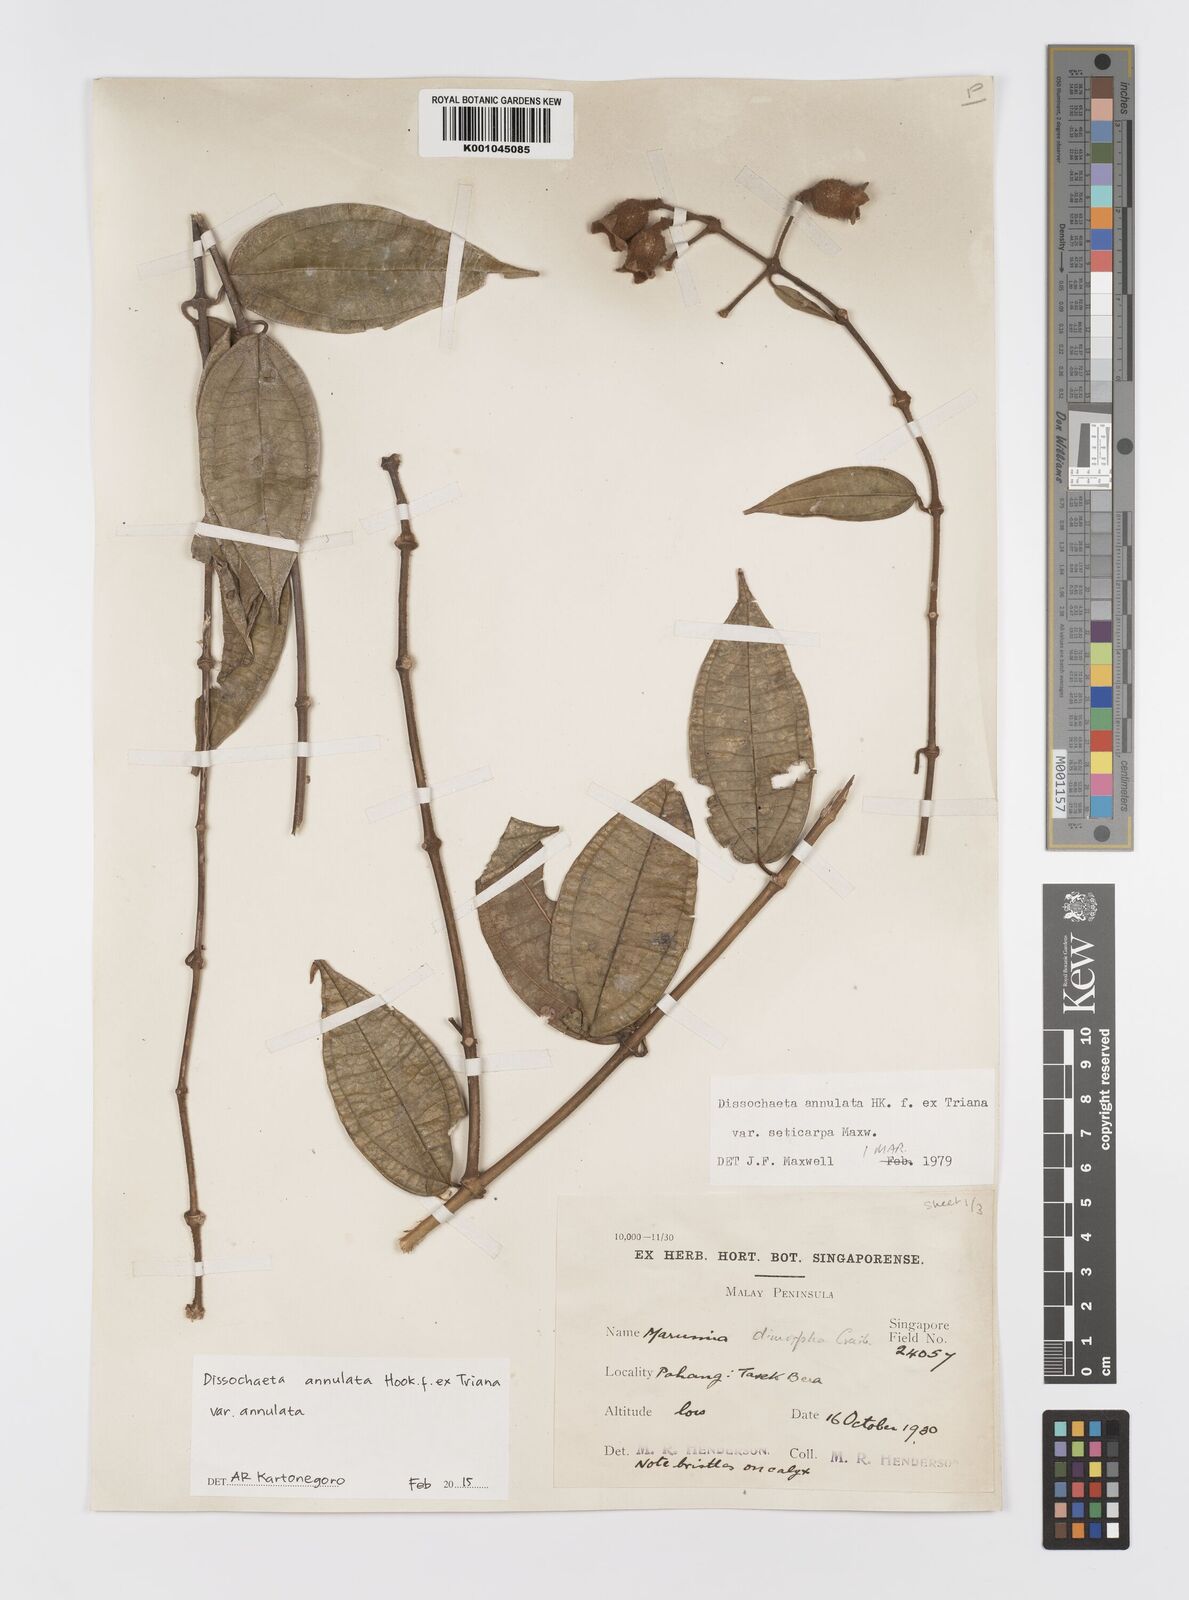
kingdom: Plantae
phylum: Tracheophyta
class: Magnoliopsida
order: Myrtales
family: Melastomataceae
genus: Dissochaeta
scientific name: Dissochaeta annulata
